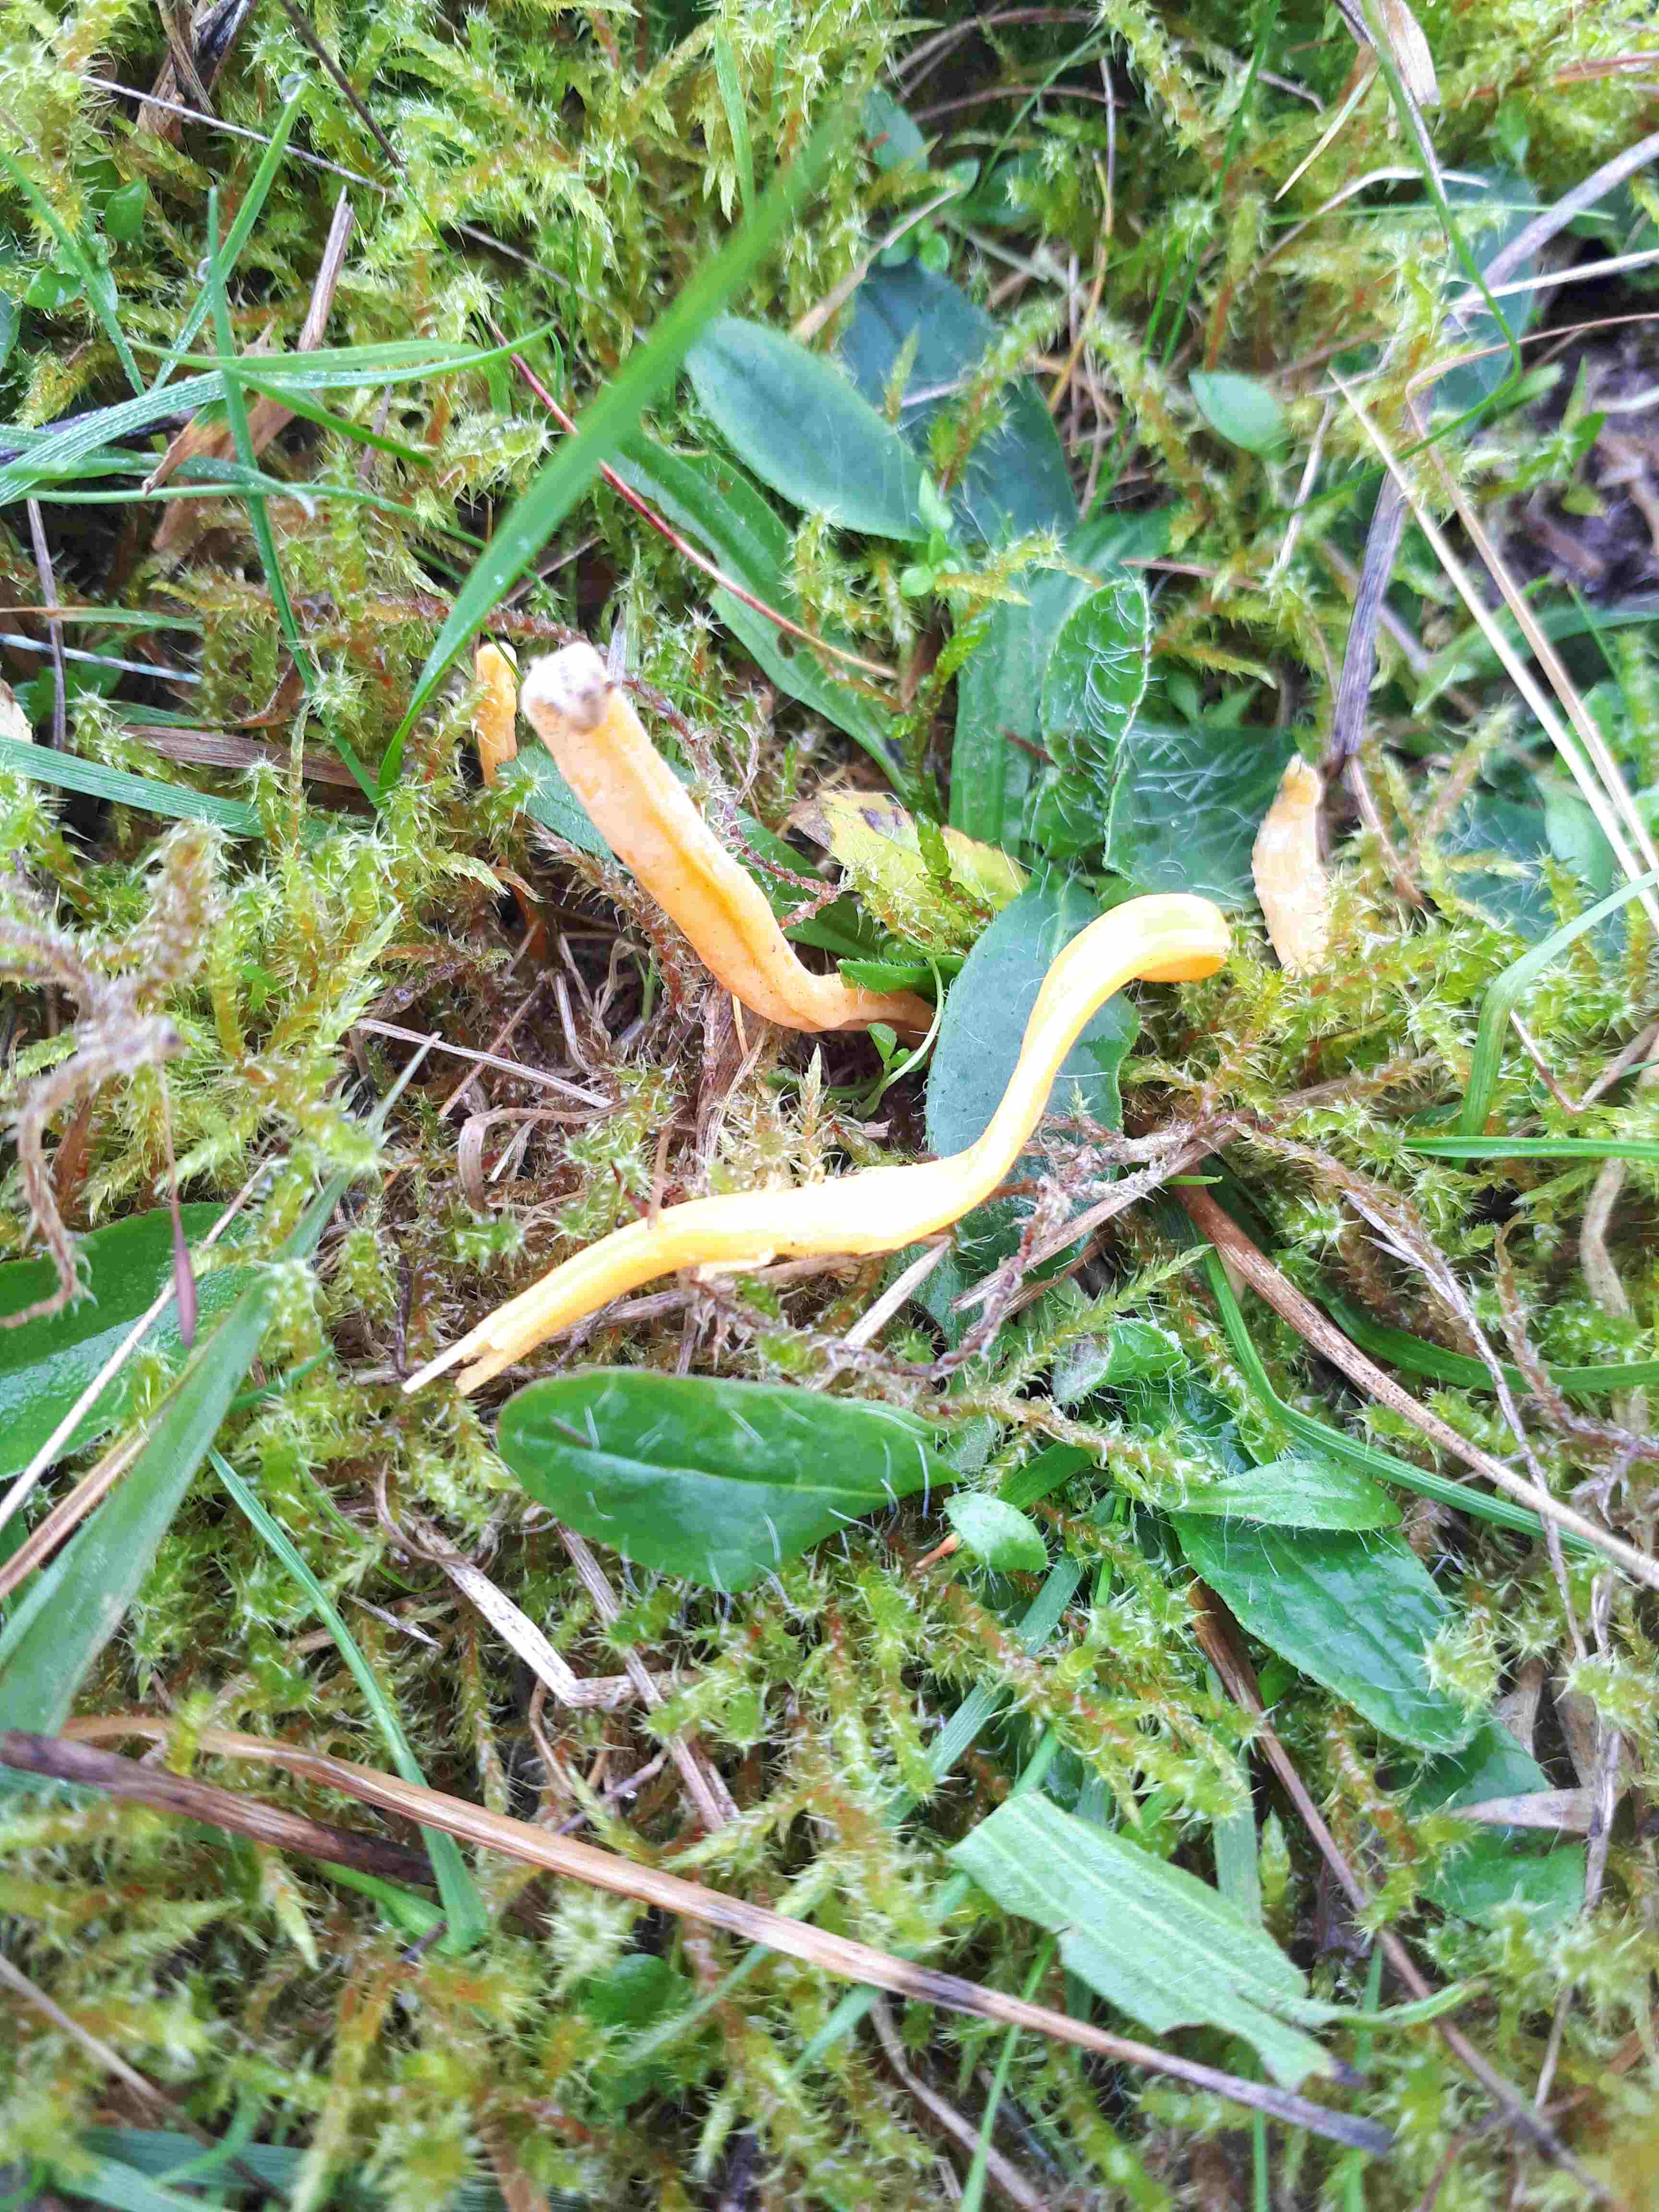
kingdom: Fungi
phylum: Basidiomycota
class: Agaricomycetes
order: Agaricales
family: Clavariaceae
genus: Clavulinopsis
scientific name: Clavulinopsis
